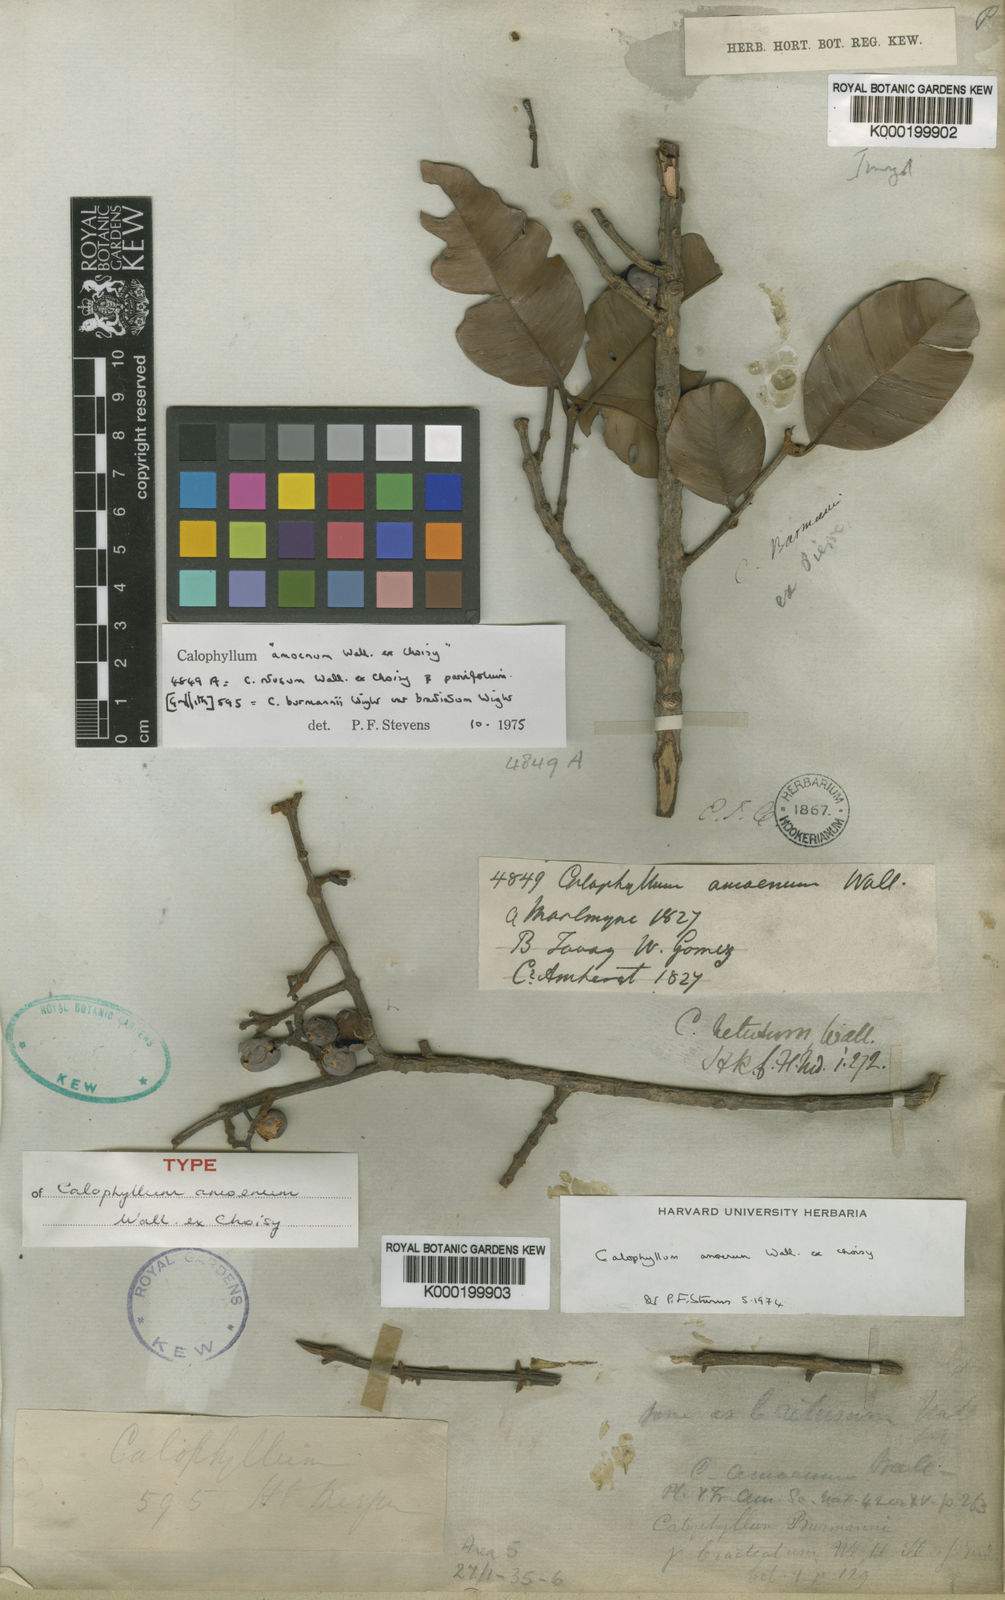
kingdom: Plantae
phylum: Tracheophyta
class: Magnoliopsida
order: Malpighiales
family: Calophyllaceae
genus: Calophyllum
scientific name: Calophyllum calaba
